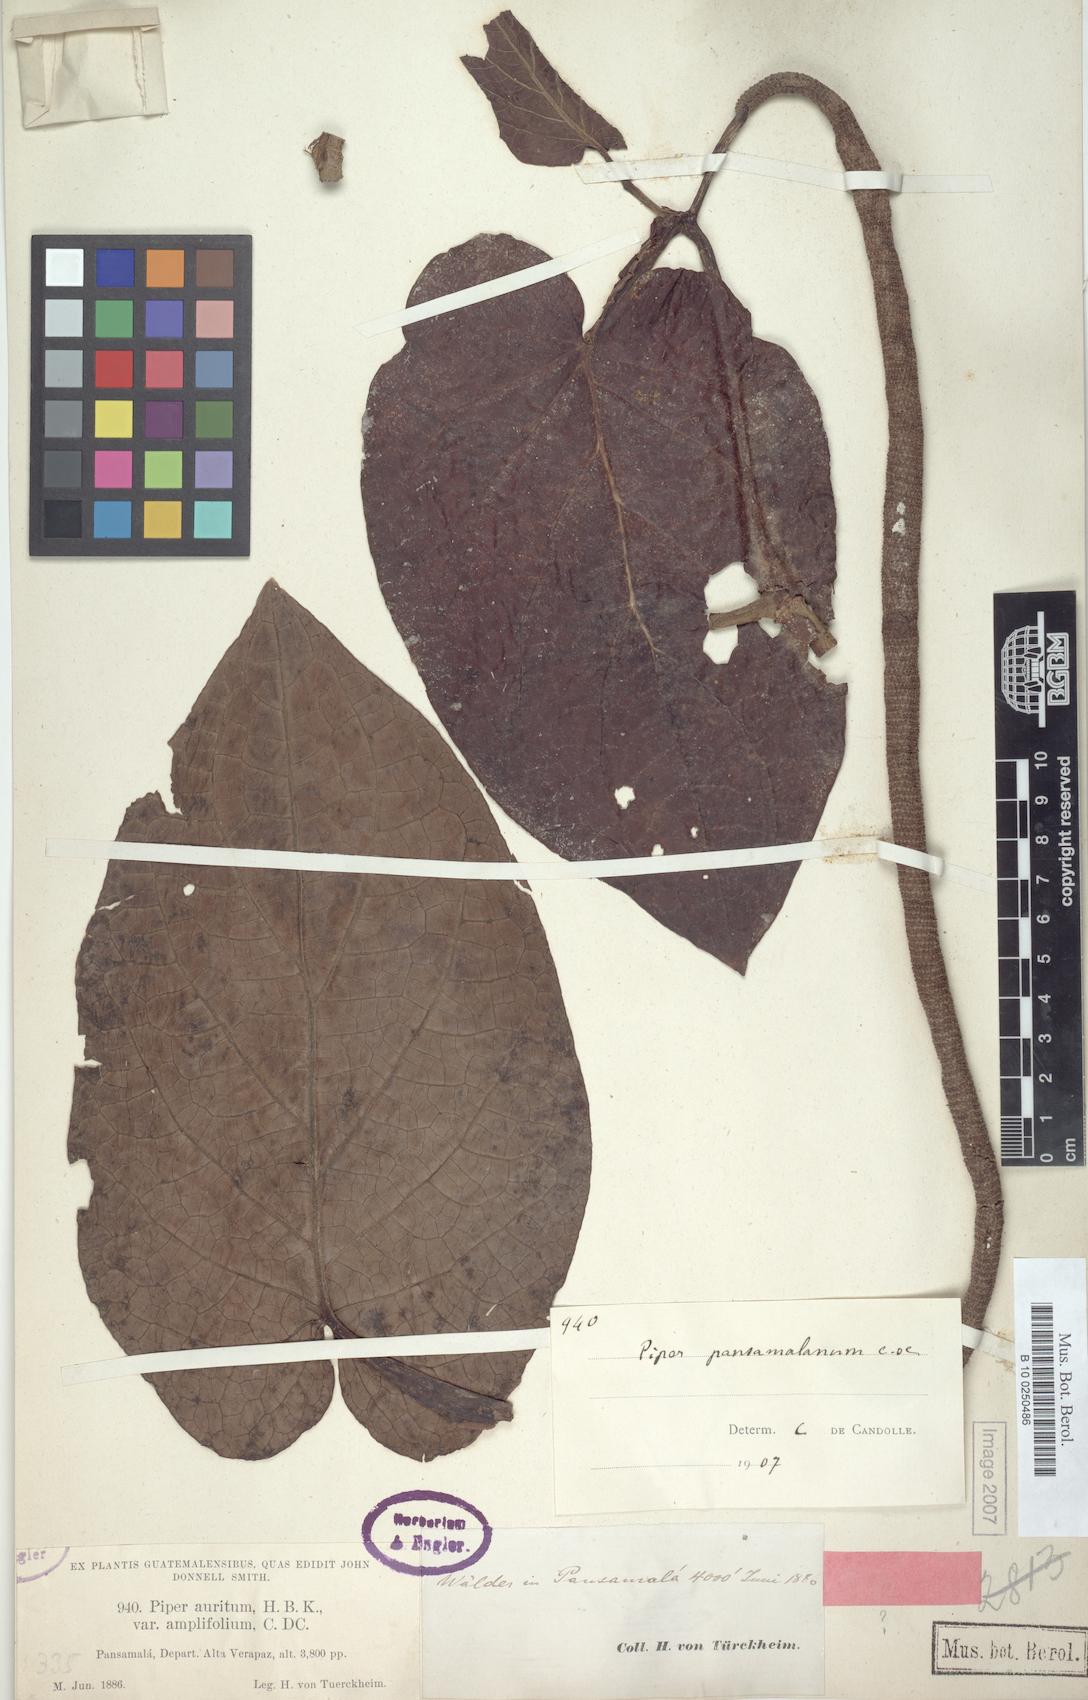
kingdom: Plantae
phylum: Tracheophyta
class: Magnoliopsida
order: Piperales
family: Piperaceae
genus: Piper
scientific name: Piper pansamalanum
